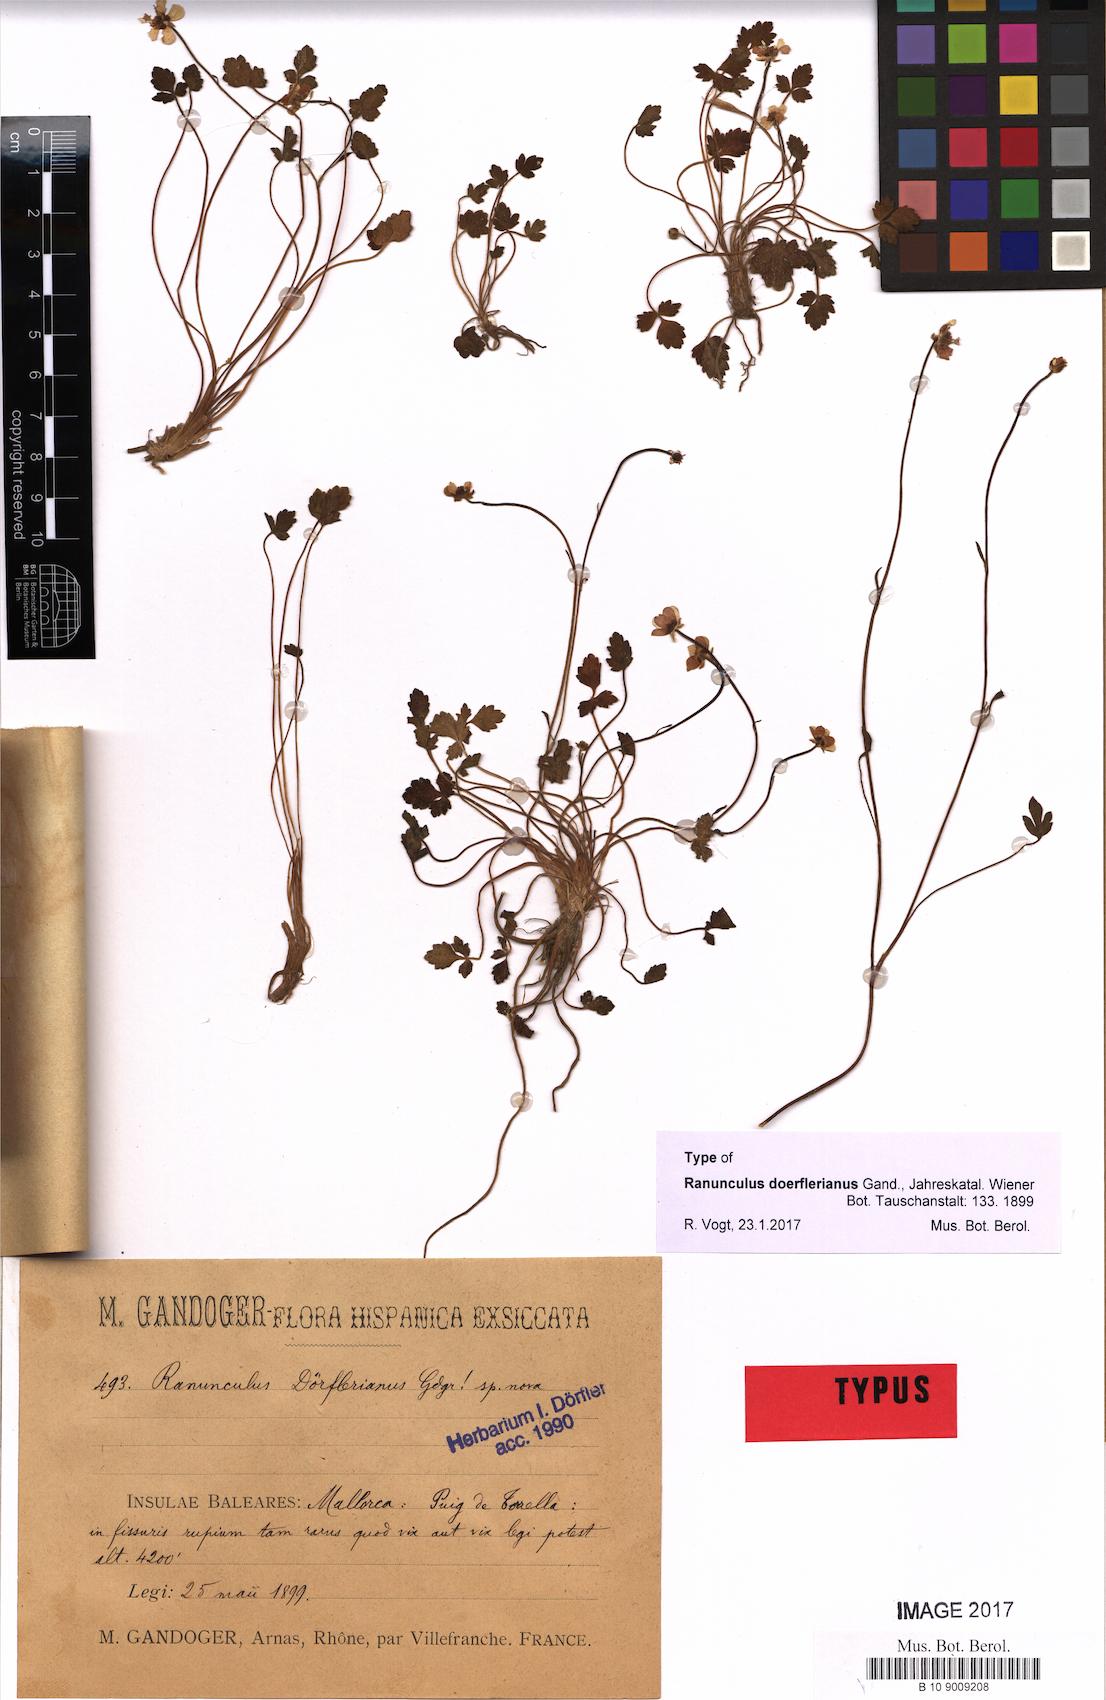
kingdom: Plantae
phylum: Tracheophyta
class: Magnoliopsida
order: Ranunculales
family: Ranunculaceae
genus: Ranunculus
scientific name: Ranunculus weyleri
